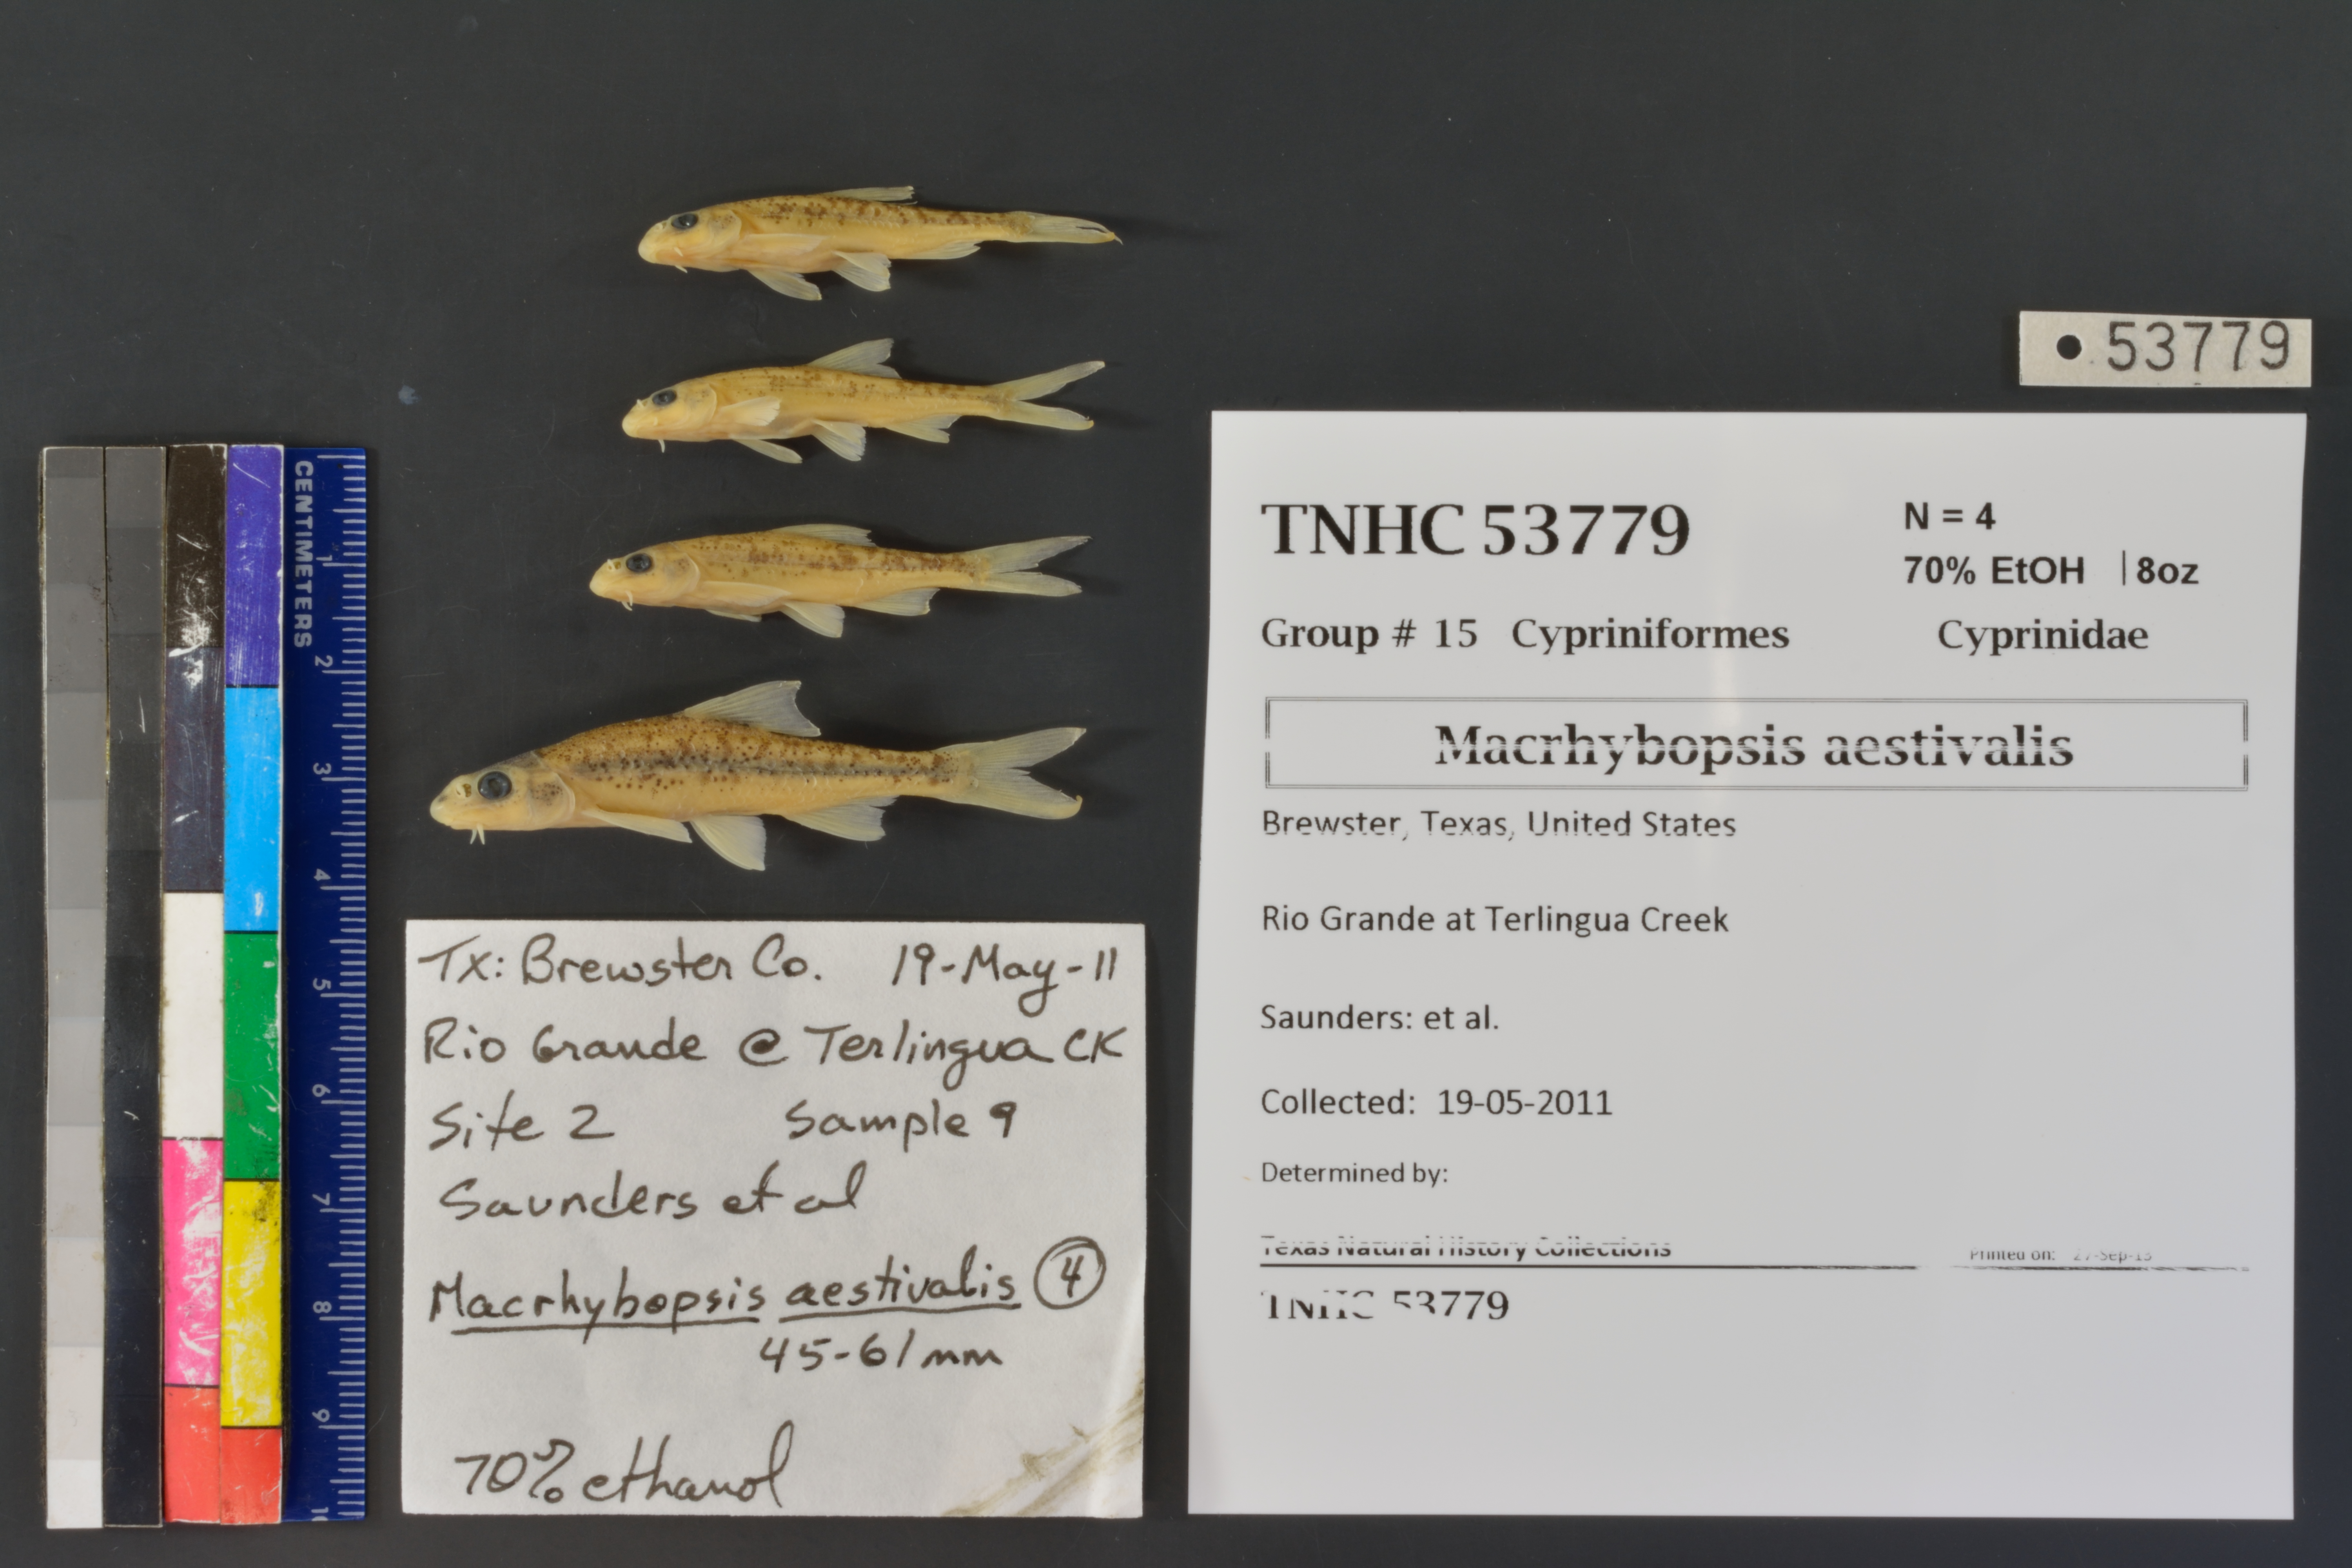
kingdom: Animalia
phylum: Chordata
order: Cypriniformes
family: Cyprinidae
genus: Macrhybopsis
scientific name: Macrhybopsis aestivalis
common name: Speckled chub
